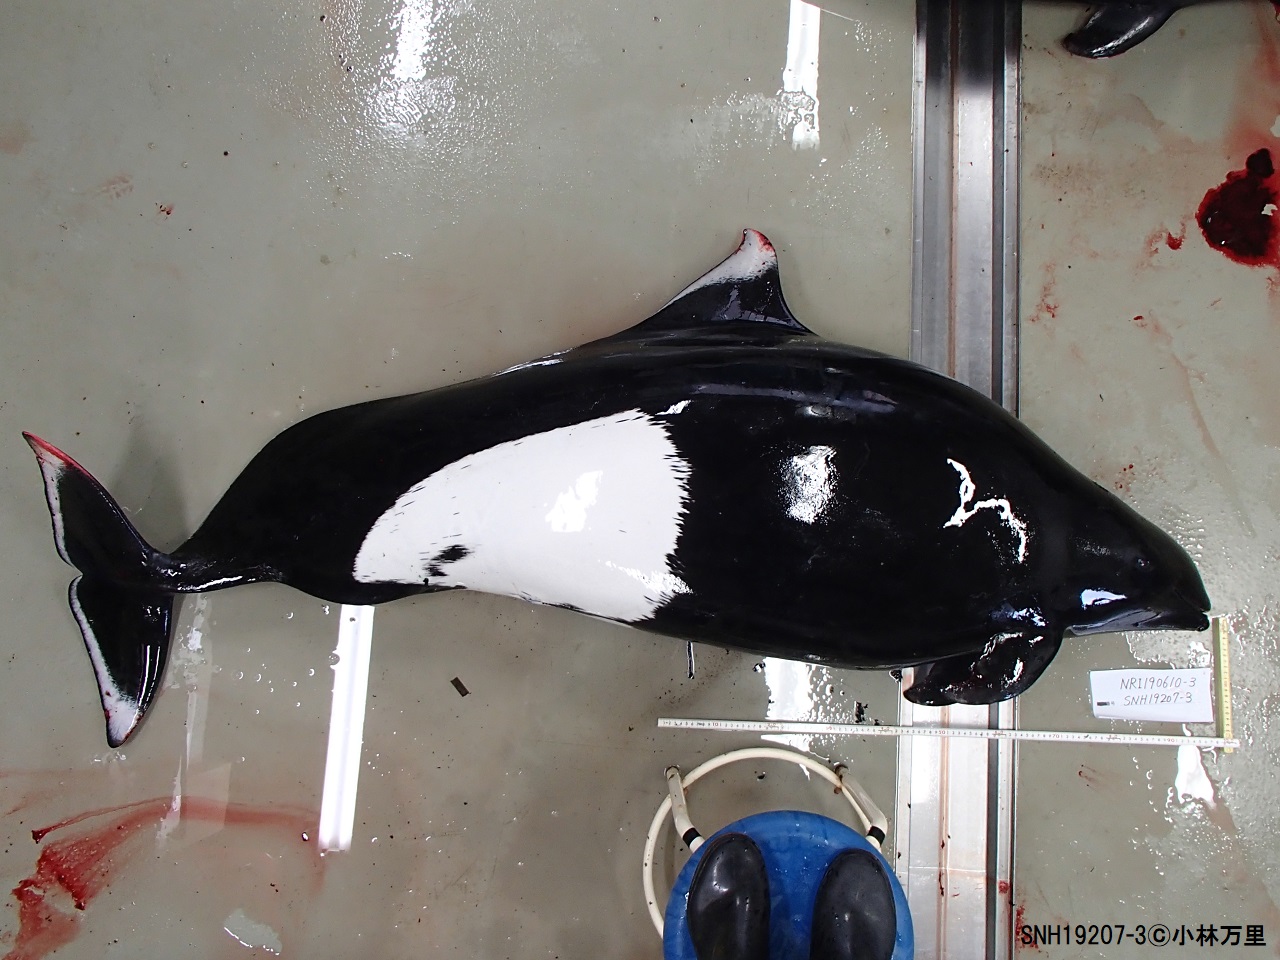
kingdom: Animalia
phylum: Chordata
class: Mammalia
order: Cetacea
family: Phocoenidae
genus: Phocoenoides
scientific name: Phocoenoides dalli
